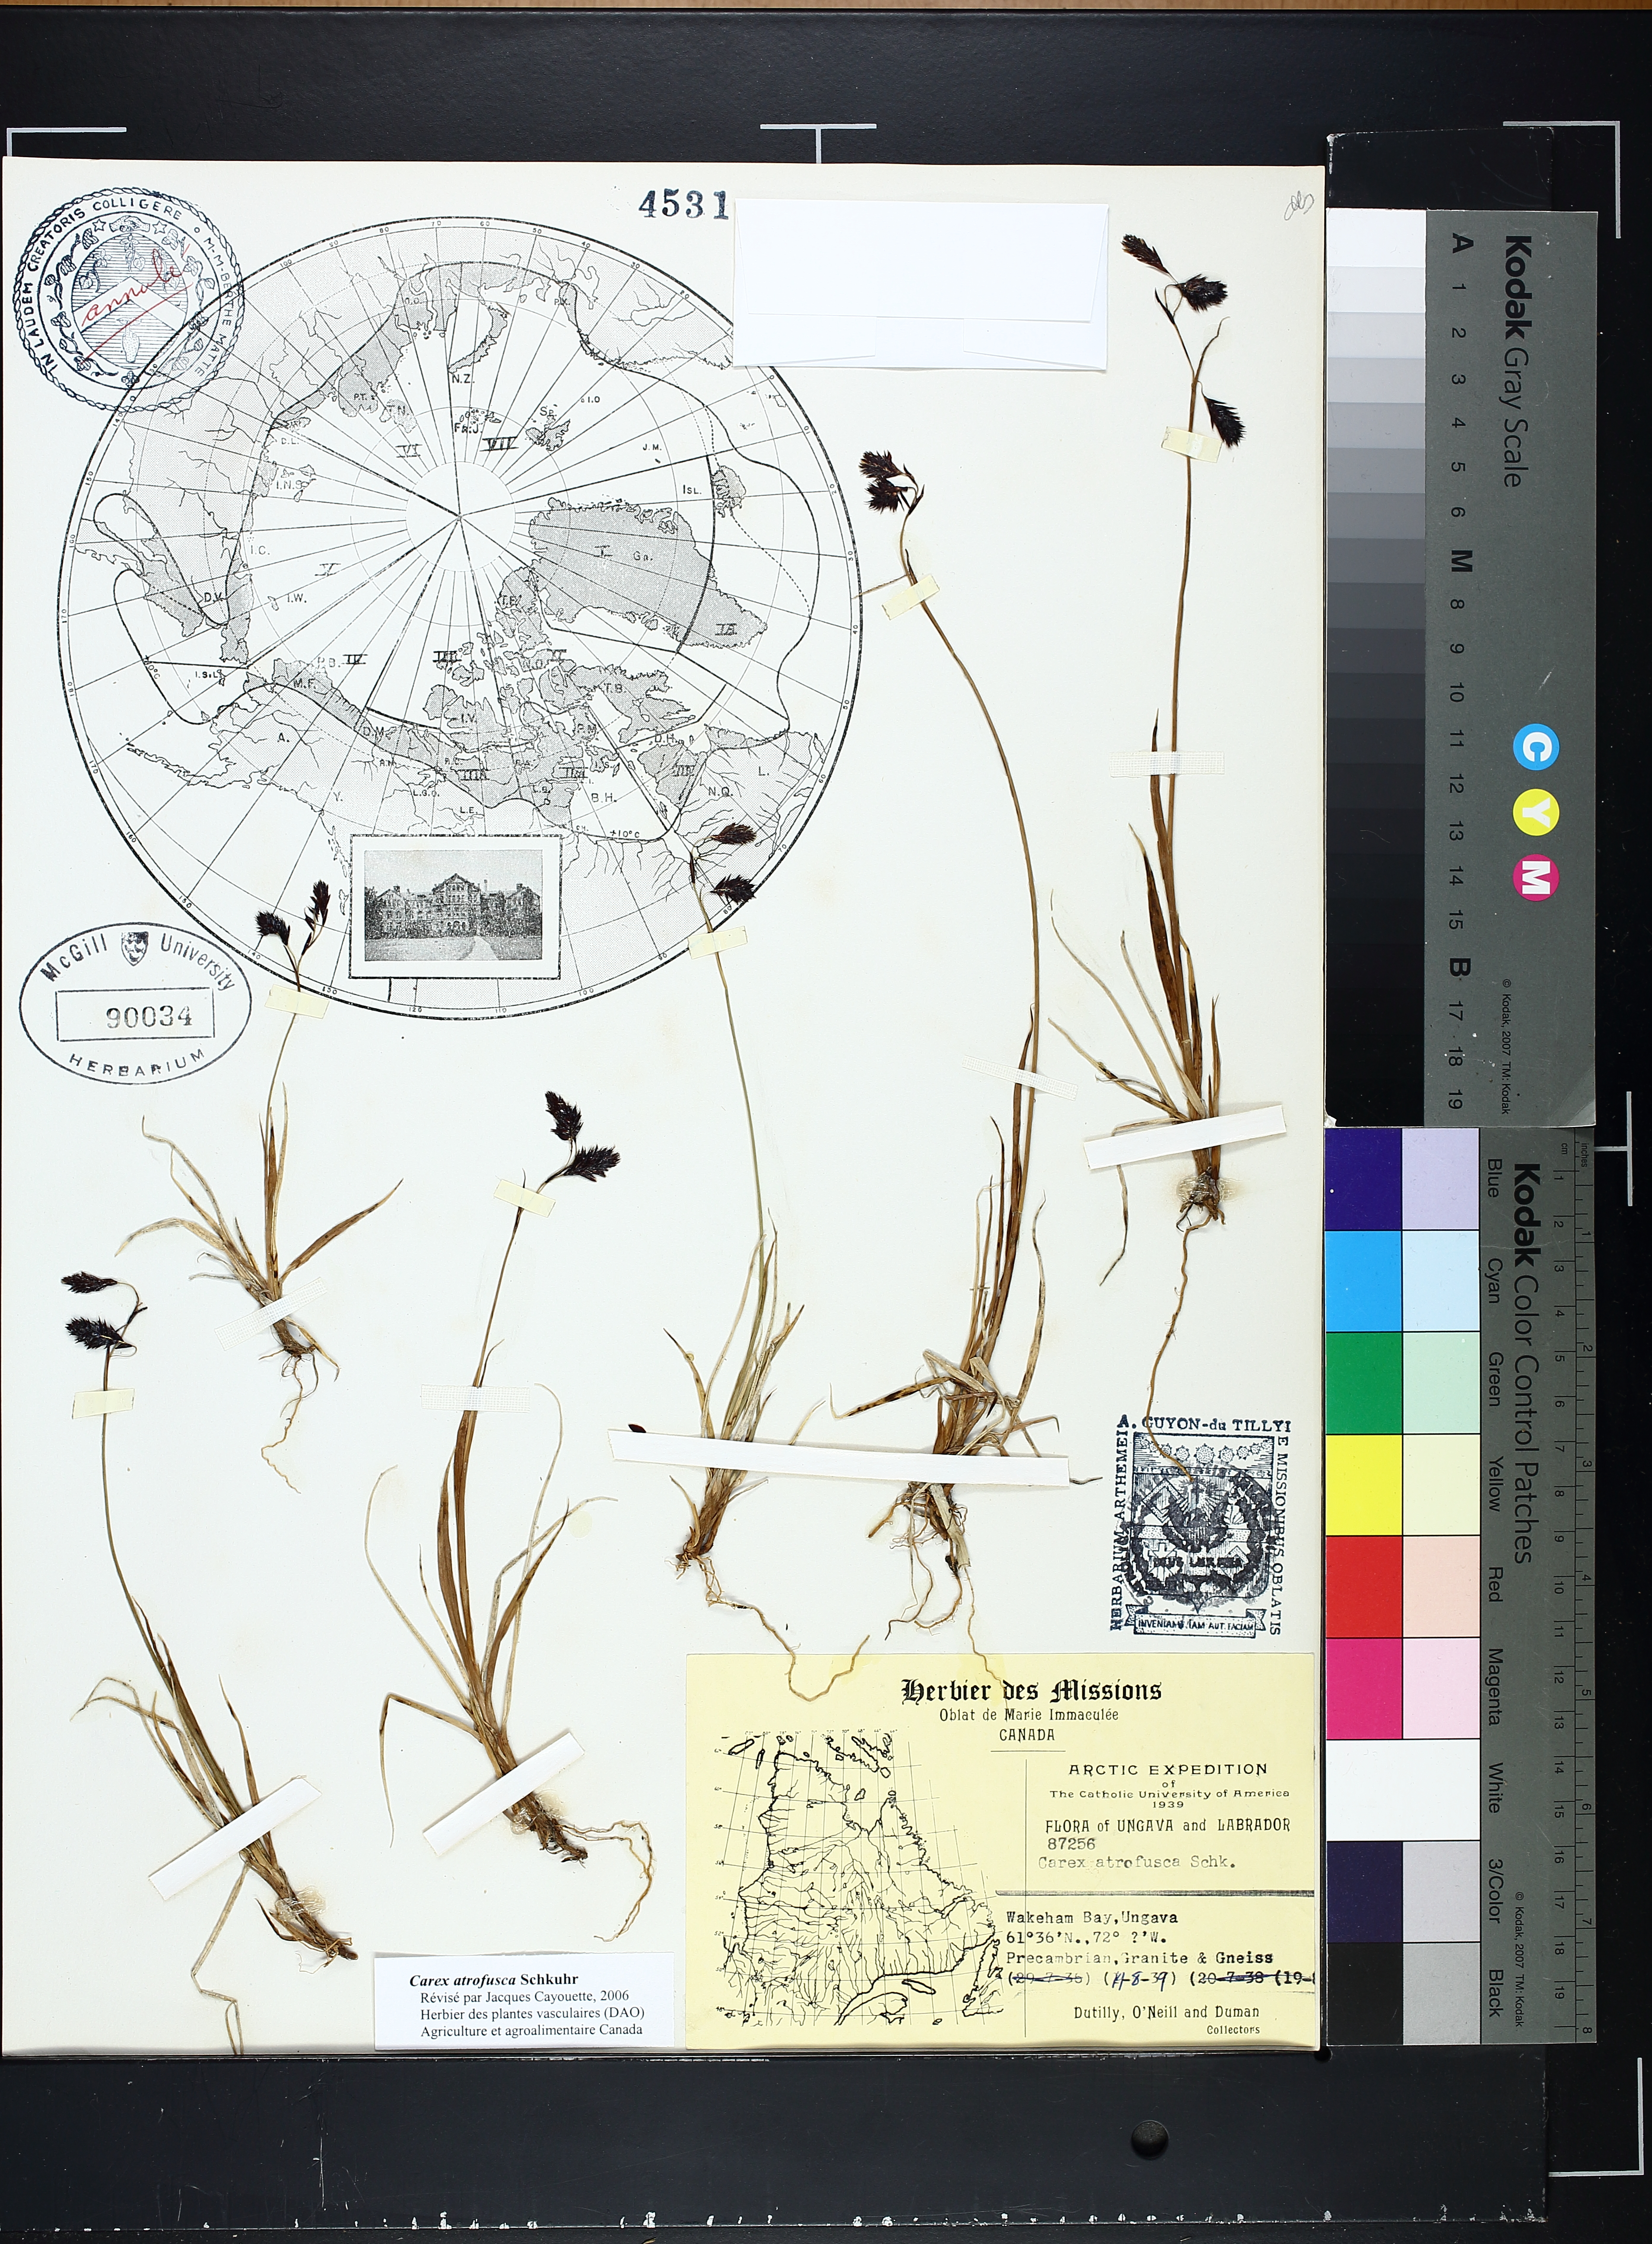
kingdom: Plantae
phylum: Tracheophyta
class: Liliopsida
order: Poales
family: Cyperaceae
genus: Carex
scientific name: Carex atrofusca
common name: Scorched alpine-sedge
